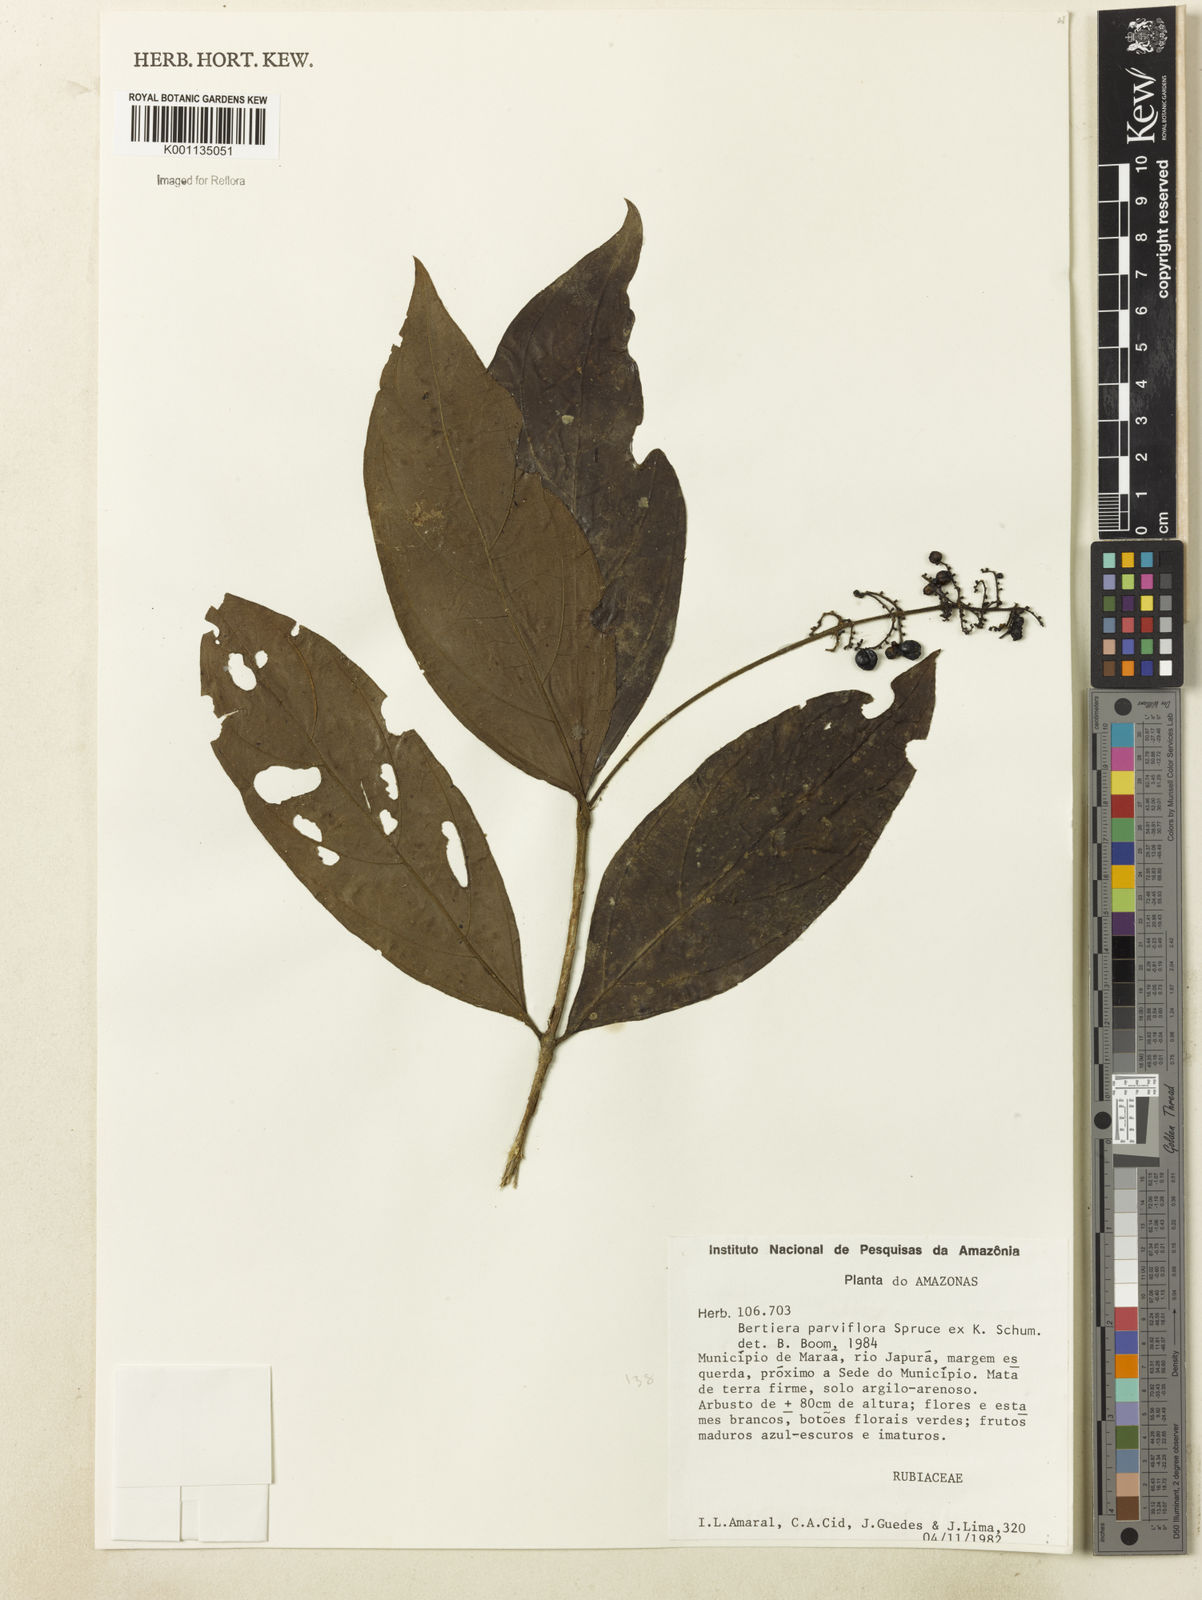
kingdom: Plantae
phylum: Tracheophyta
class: Magnoliopsida
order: Gentianales
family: Rubiaceae
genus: Bertiera
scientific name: Bertiera guianensis
